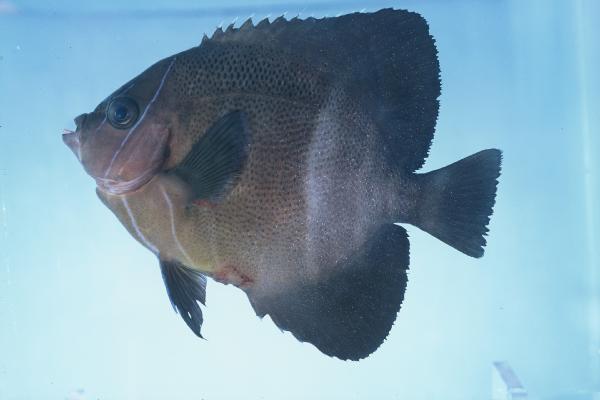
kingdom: Animalia
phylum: Chordata
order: Perciformes
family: Pomacanthidae
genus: Pomacanthus
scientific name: Pomacanthus rhomboides
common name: Old woman
